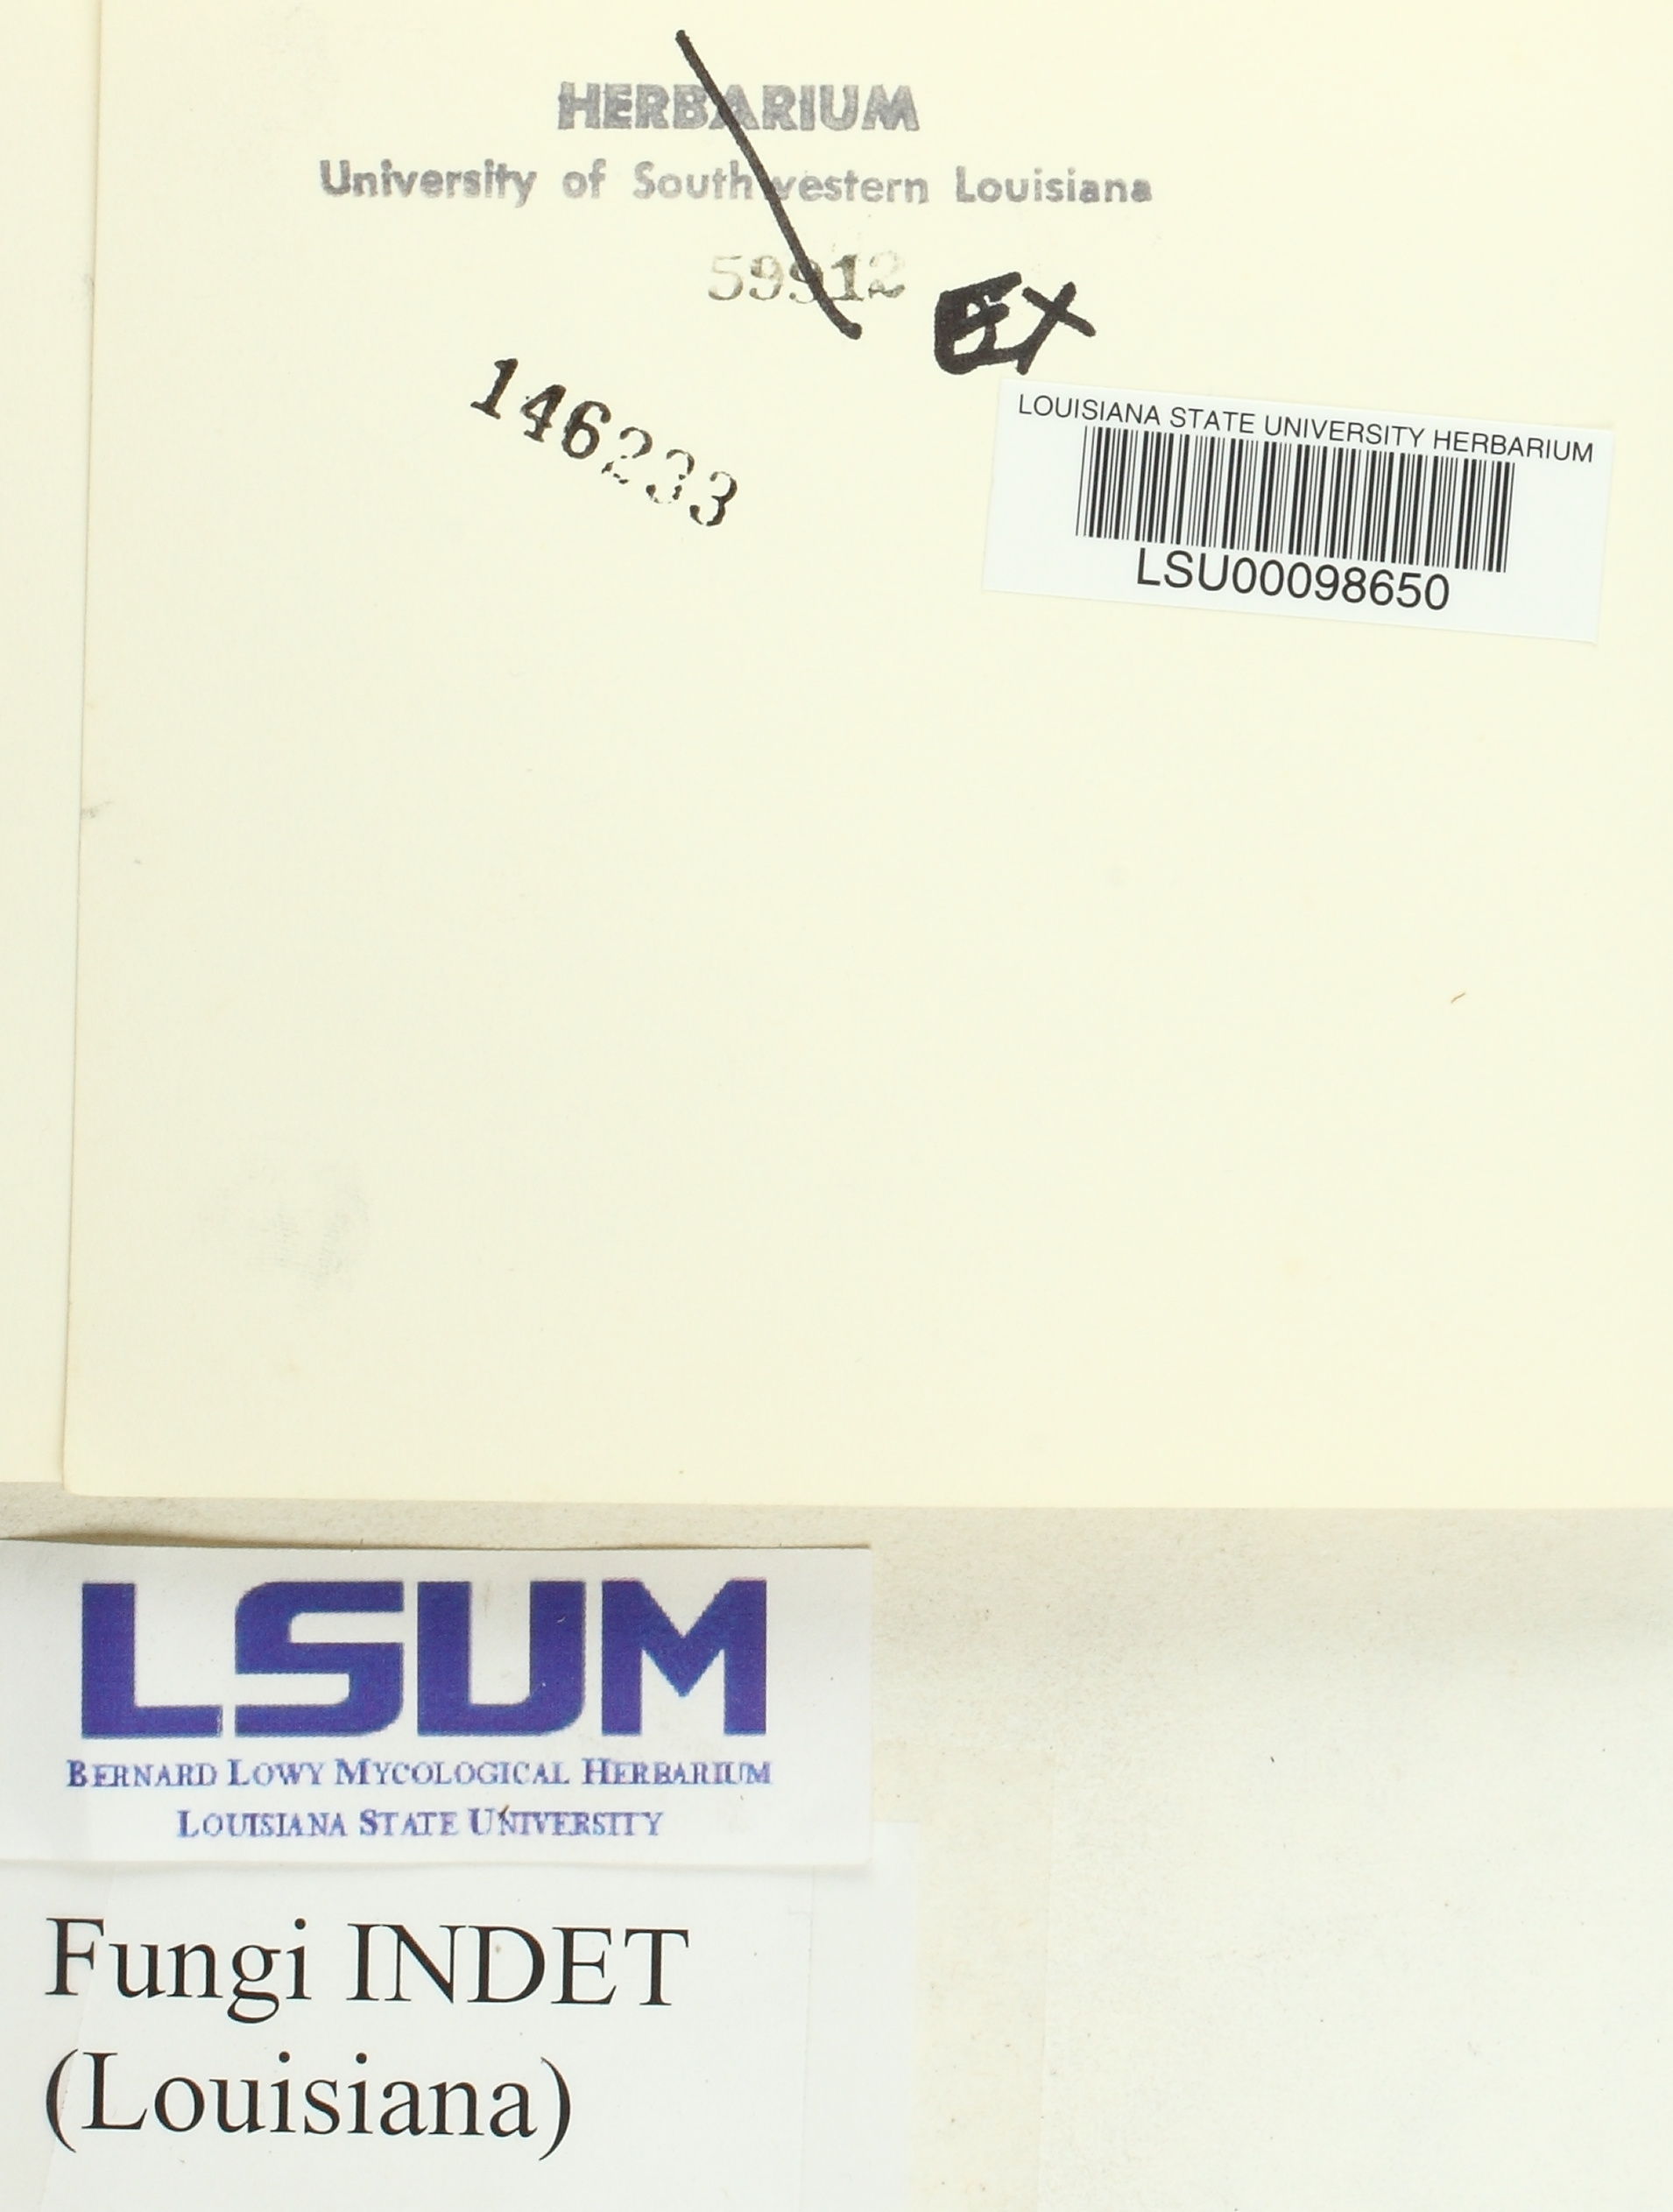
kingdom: Fungi
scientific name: Fungi
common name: Fungi
